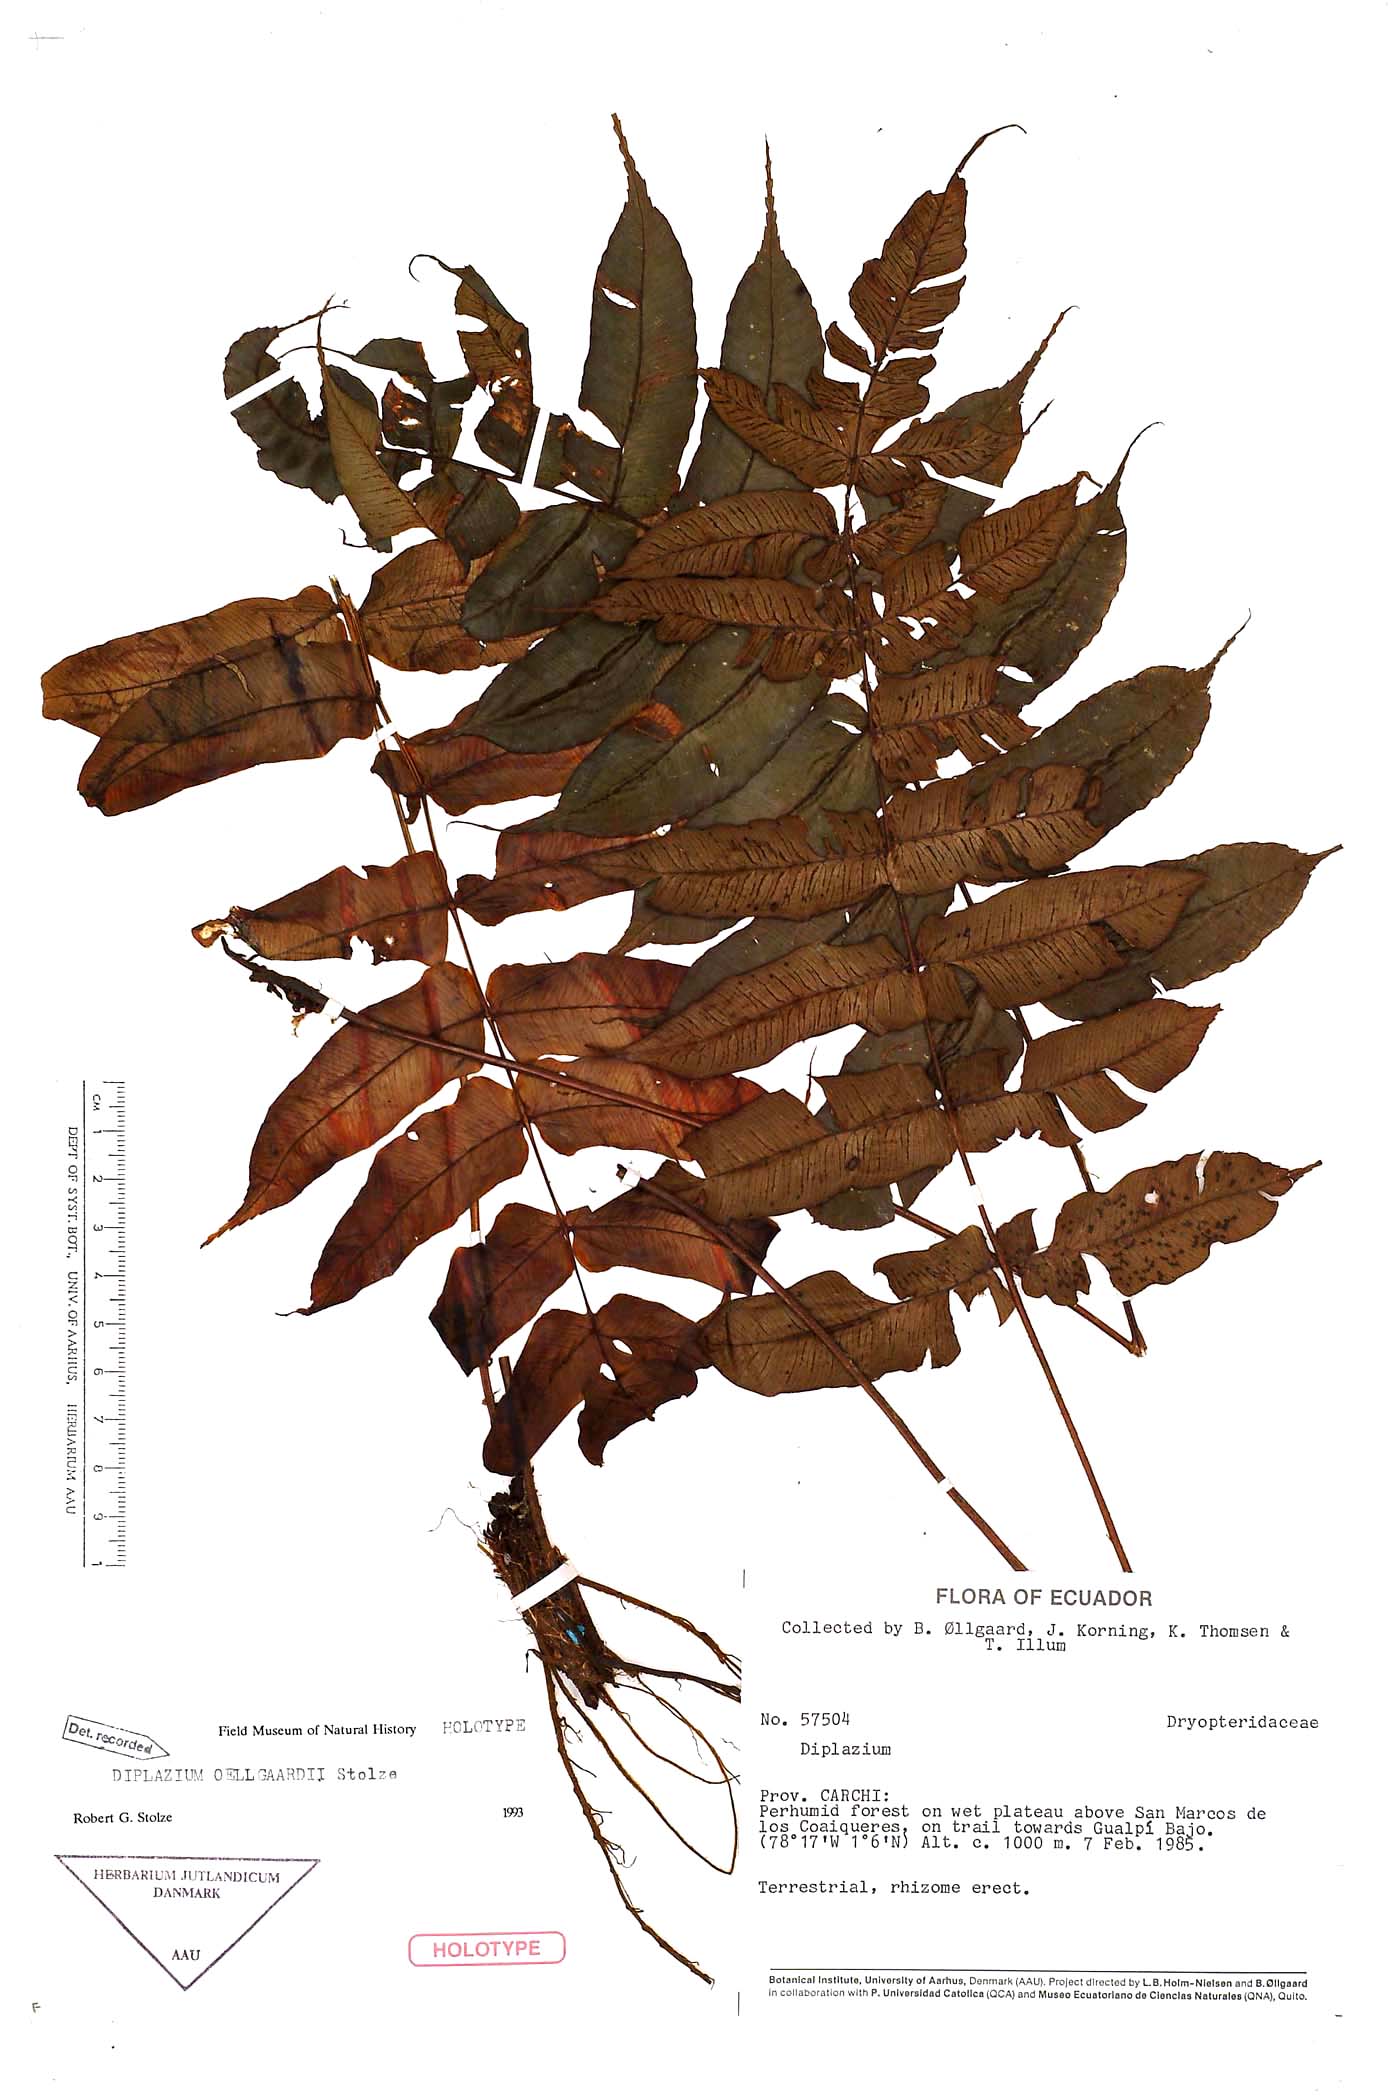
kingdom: Plantae
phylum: Tracheophyta
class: Polypodiopsida
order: Polypodiales
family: Athyriaceae
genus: Diplazium
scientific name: Diplazium oellgaardii
